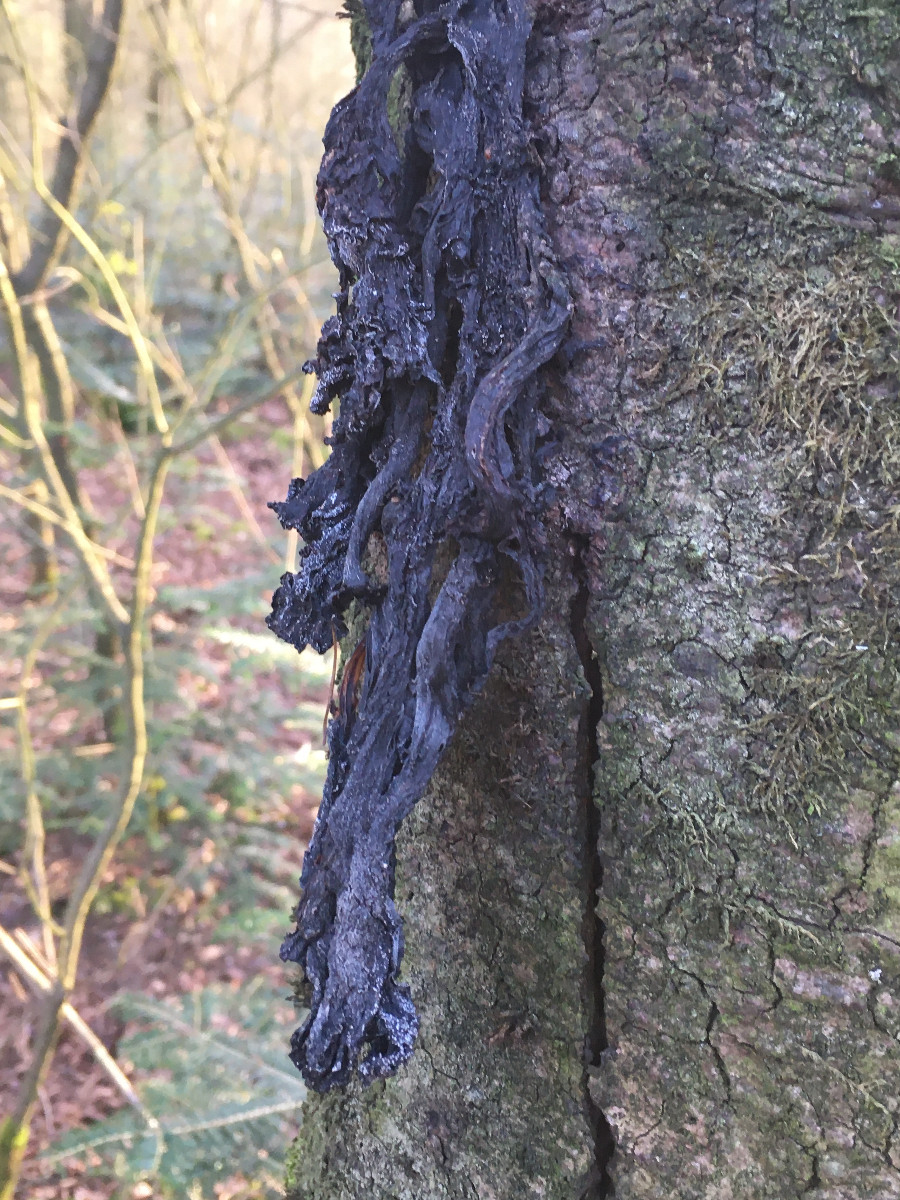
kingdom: Fungi
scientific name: Fungi
